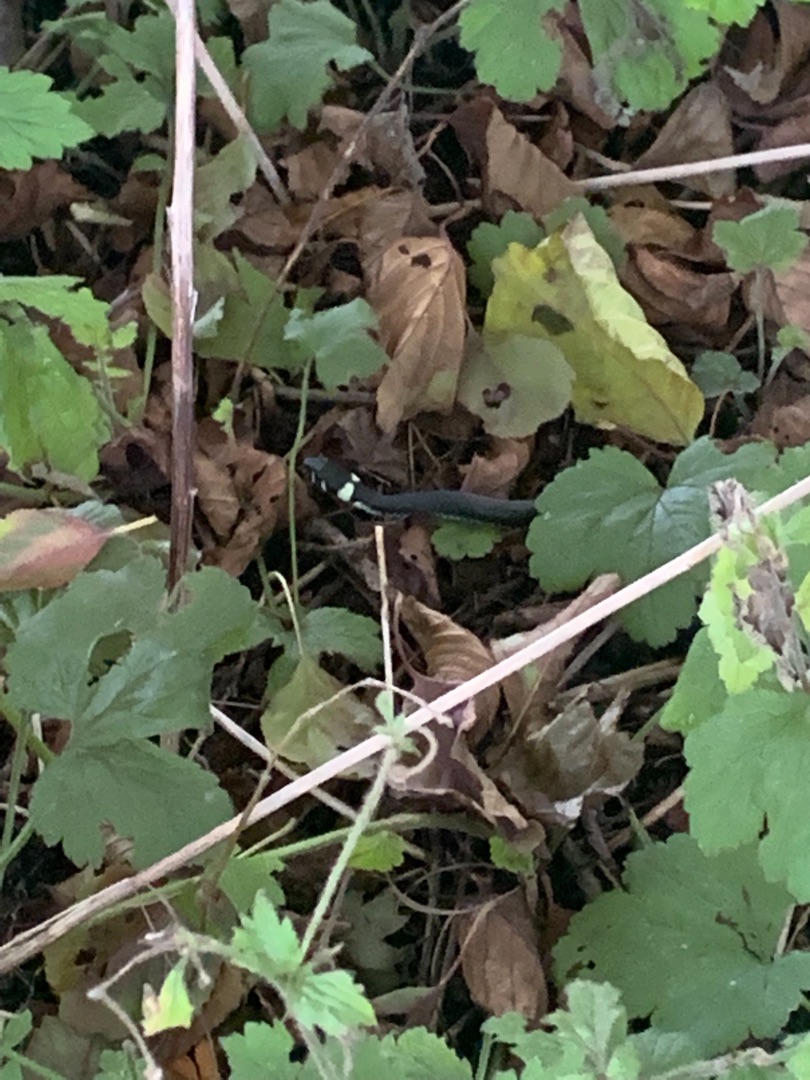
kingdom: Animalia
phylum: Chordata
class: Squamata
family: Colubridae
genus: Natrix
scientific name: Natrix natrix
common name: Snog
